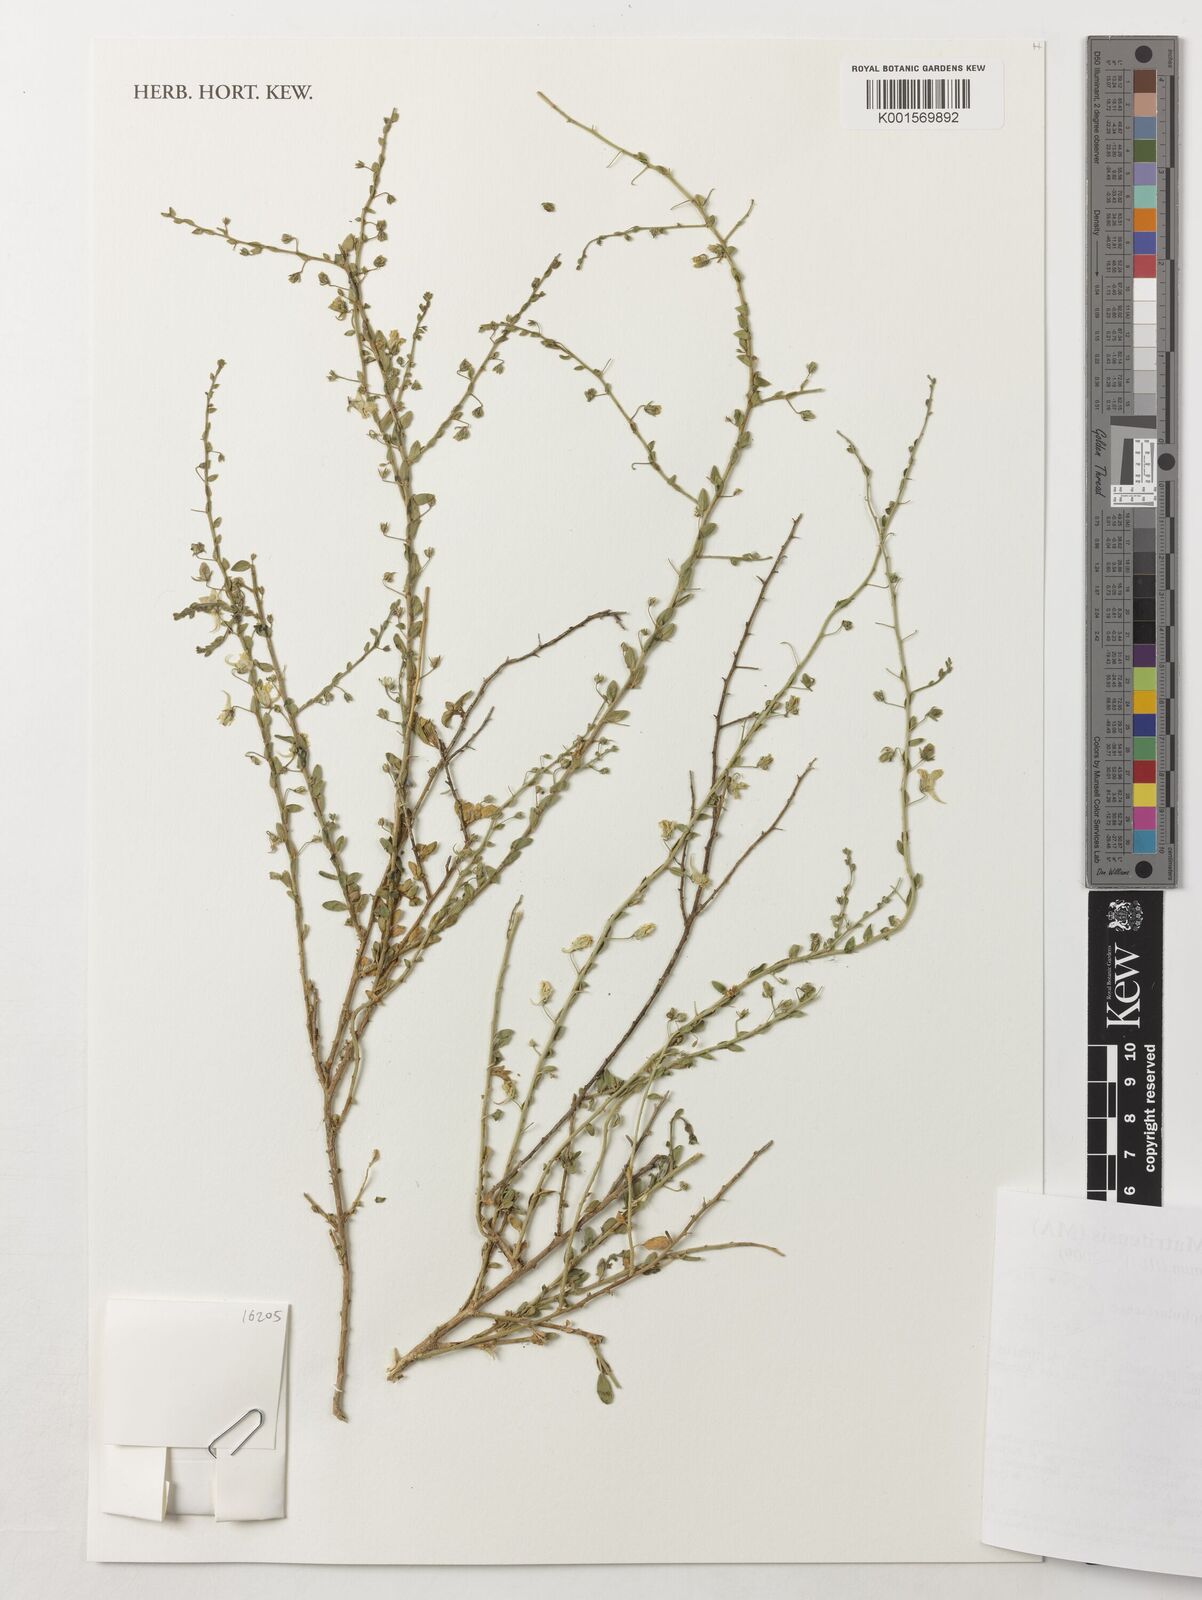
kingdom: Plantae
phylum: Tracheophyta
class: Magnoliopsida
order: Lamiales
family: Plantaginaceae
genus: Kickxia
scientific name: Kickxia
